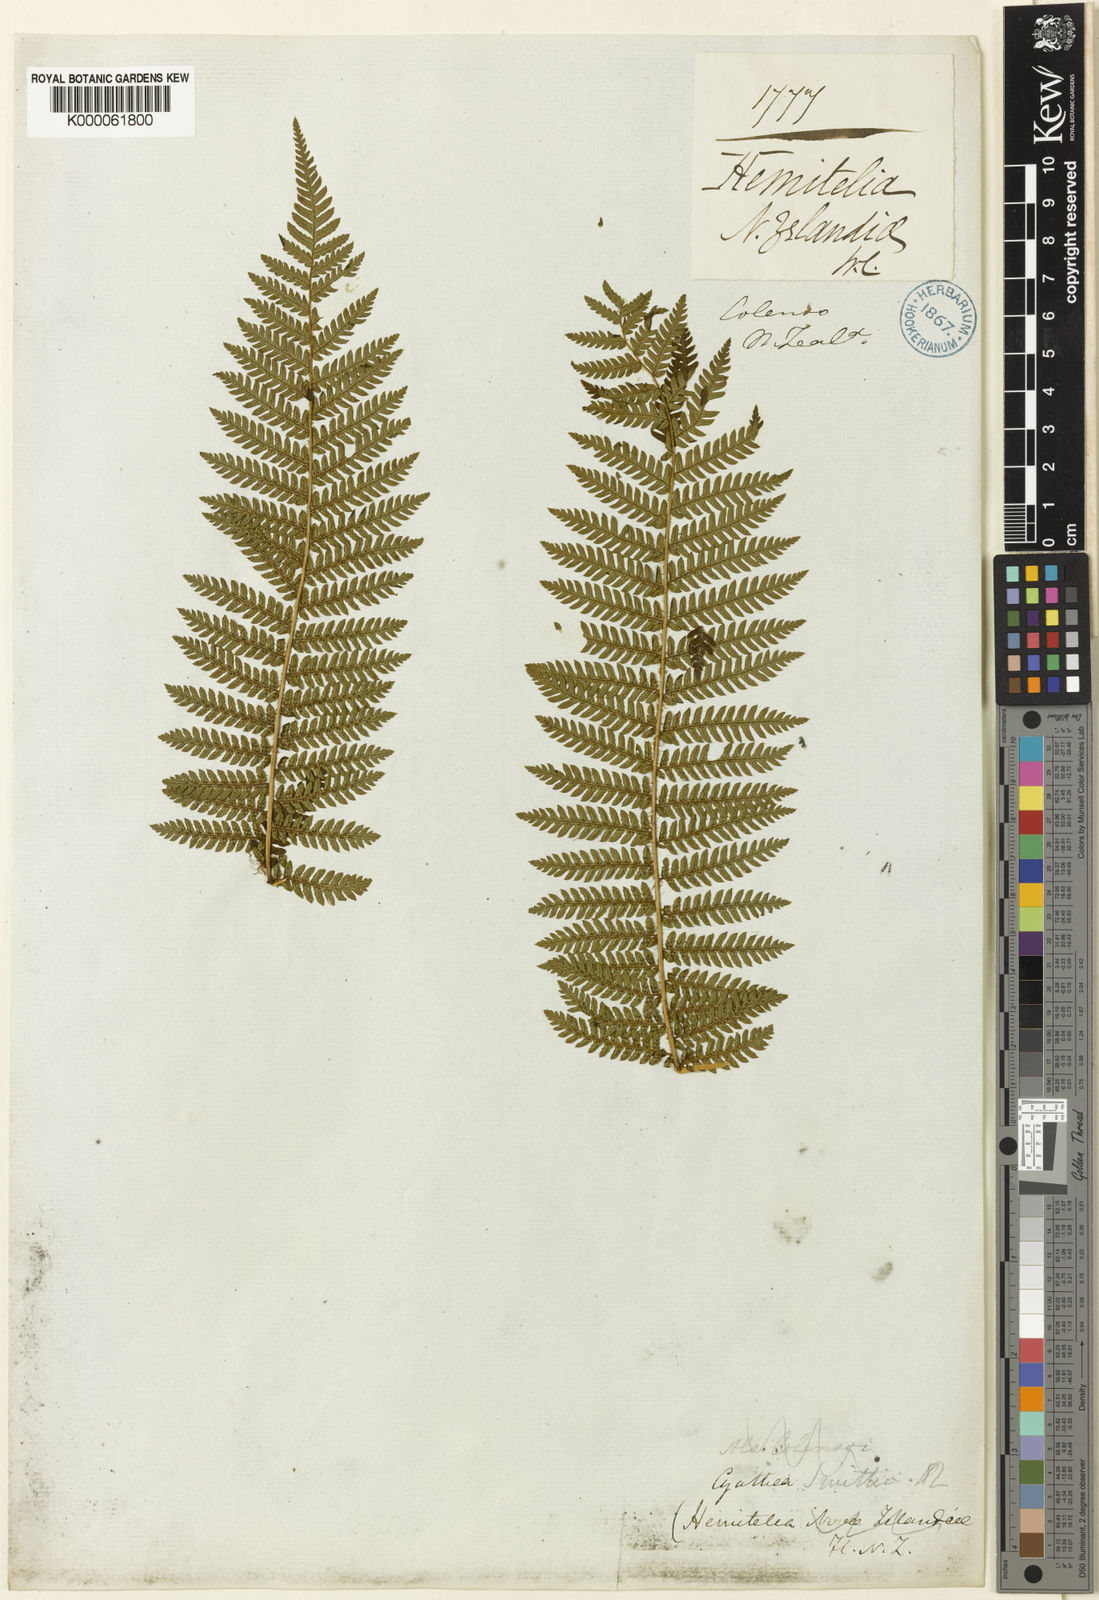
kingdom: Plantae
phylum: Tracheophyta
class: Polypodiopsida
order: Cyatheales
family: Cyatheaceae
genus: Alsophila
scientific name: Alsophila smithii
